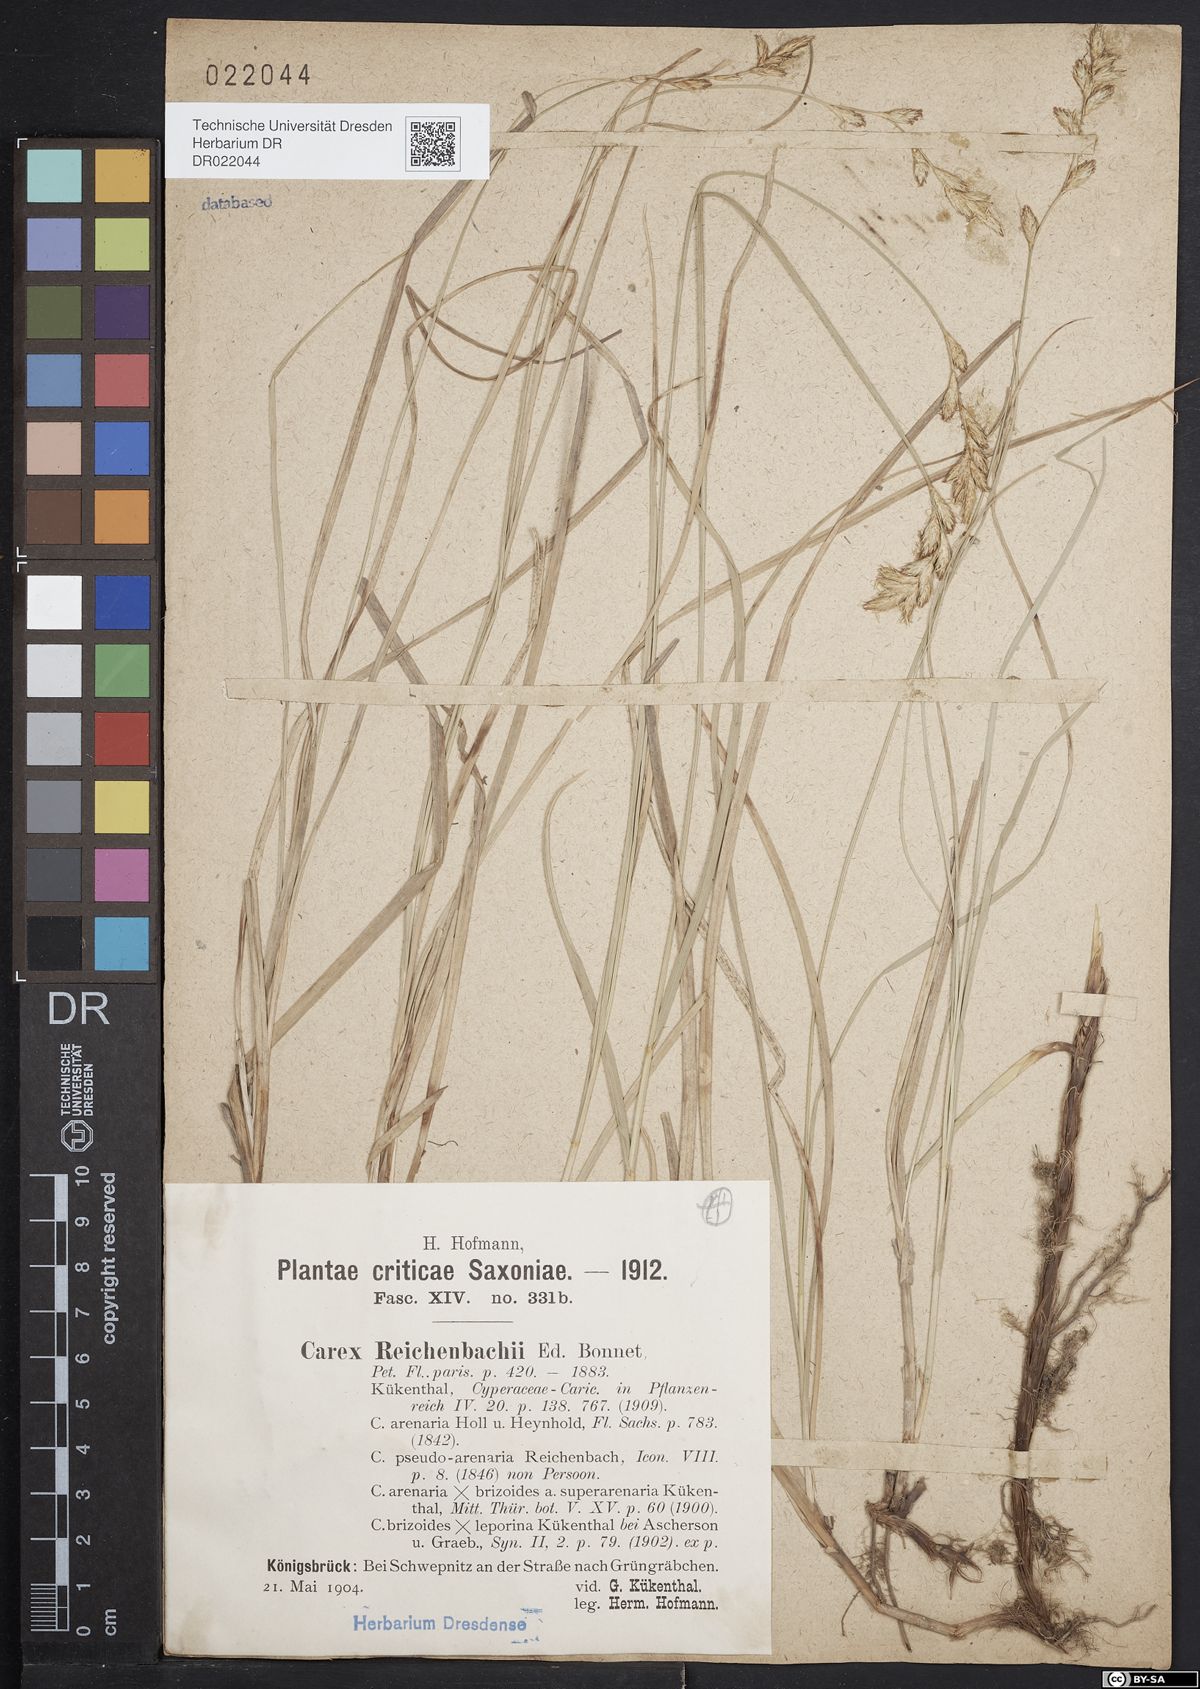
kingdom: Plantae
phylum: Tracheophyta
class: Liliopsida
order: Poales
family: Cyperaceae
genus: Carex
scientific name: Carex pseudobrizoides
